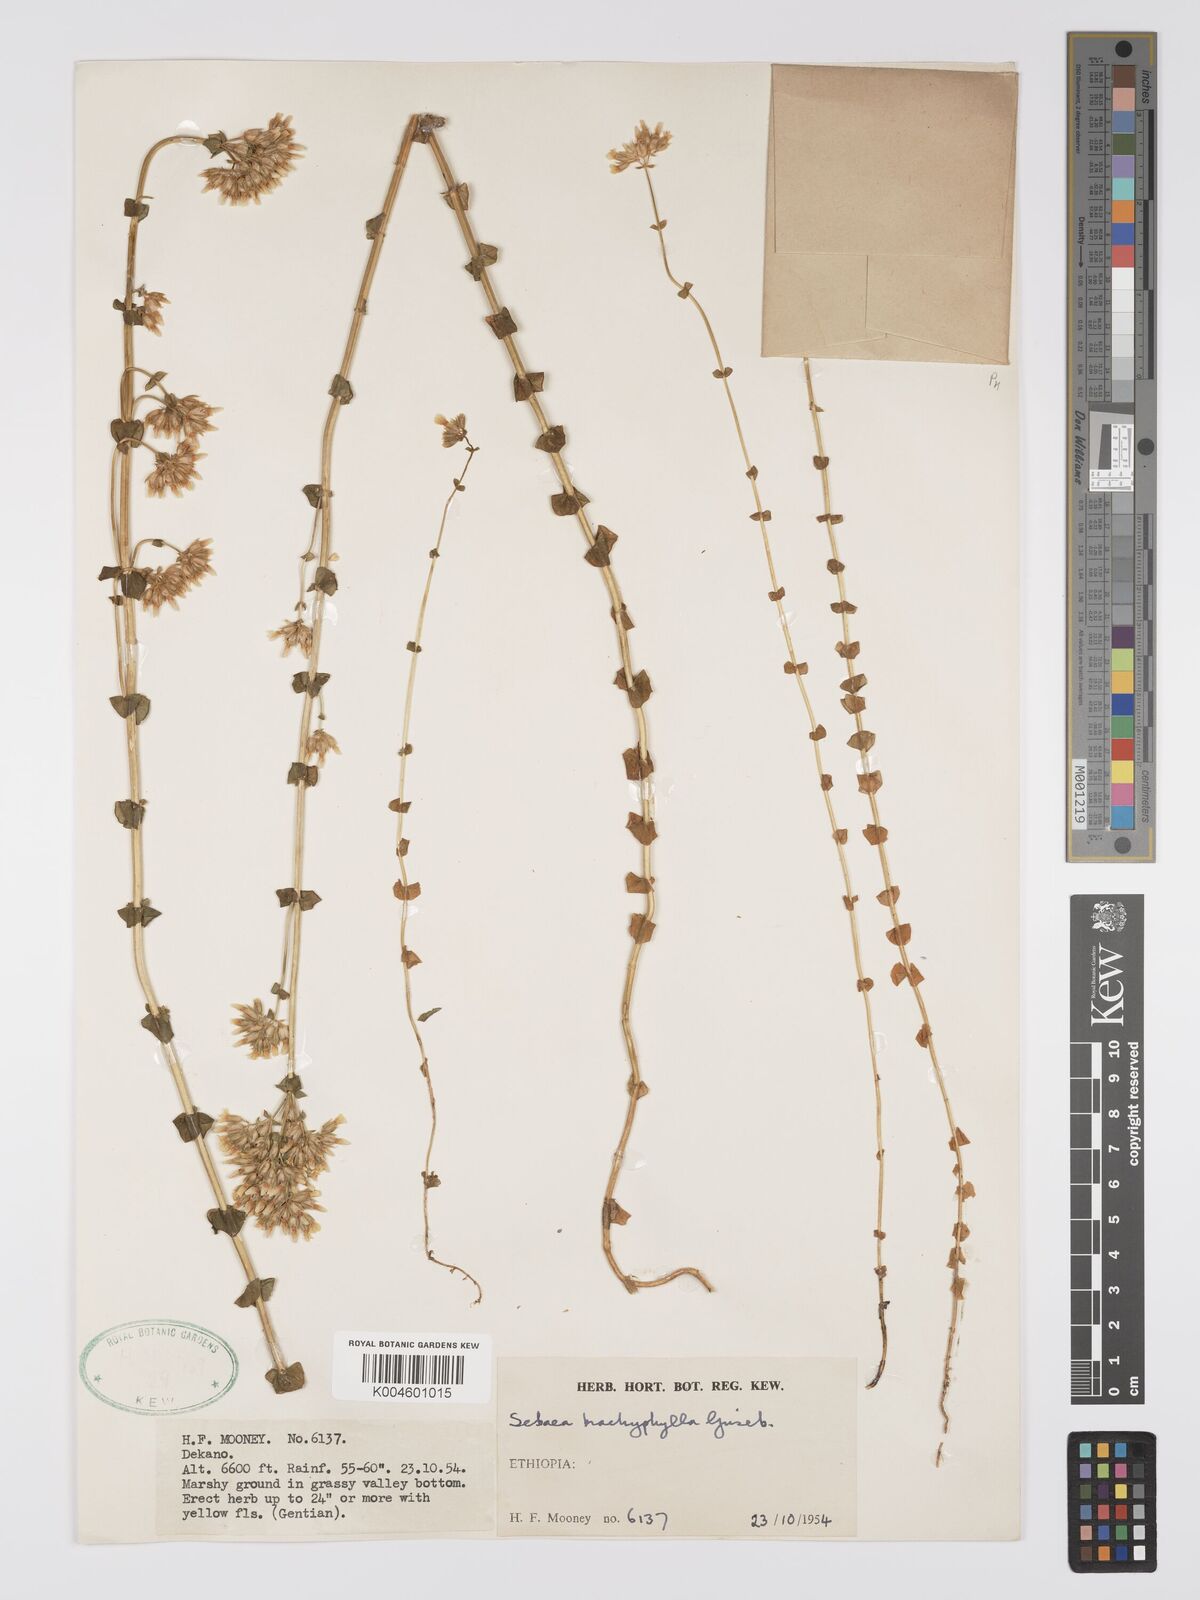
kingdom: Plantae
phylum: Tracheophyta
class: Magnoliopsida
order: Gentianales
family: Gentianaceae
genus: Sebaea
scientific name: Sebaea brachyphylla
